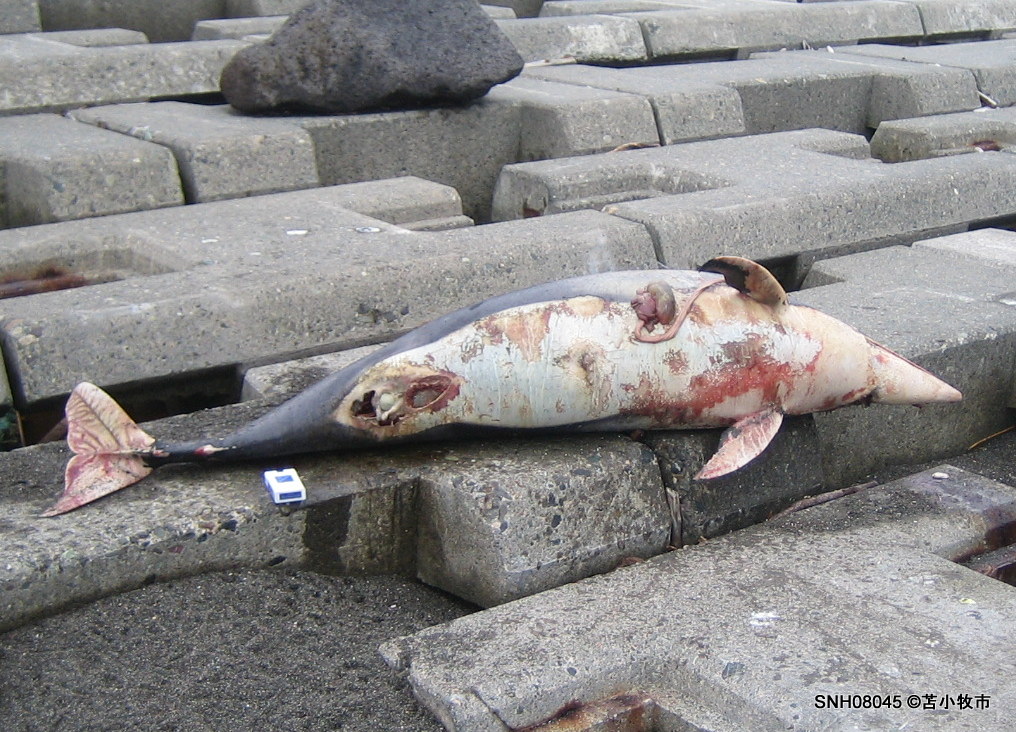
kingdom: Animalia
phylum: Chordata
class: Mammalia
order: Cetacea
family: Delphinidae
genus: Lagenorhynchus
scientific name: Lagenorhynchus obliquidens
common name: Pacific white-sided dolphin
